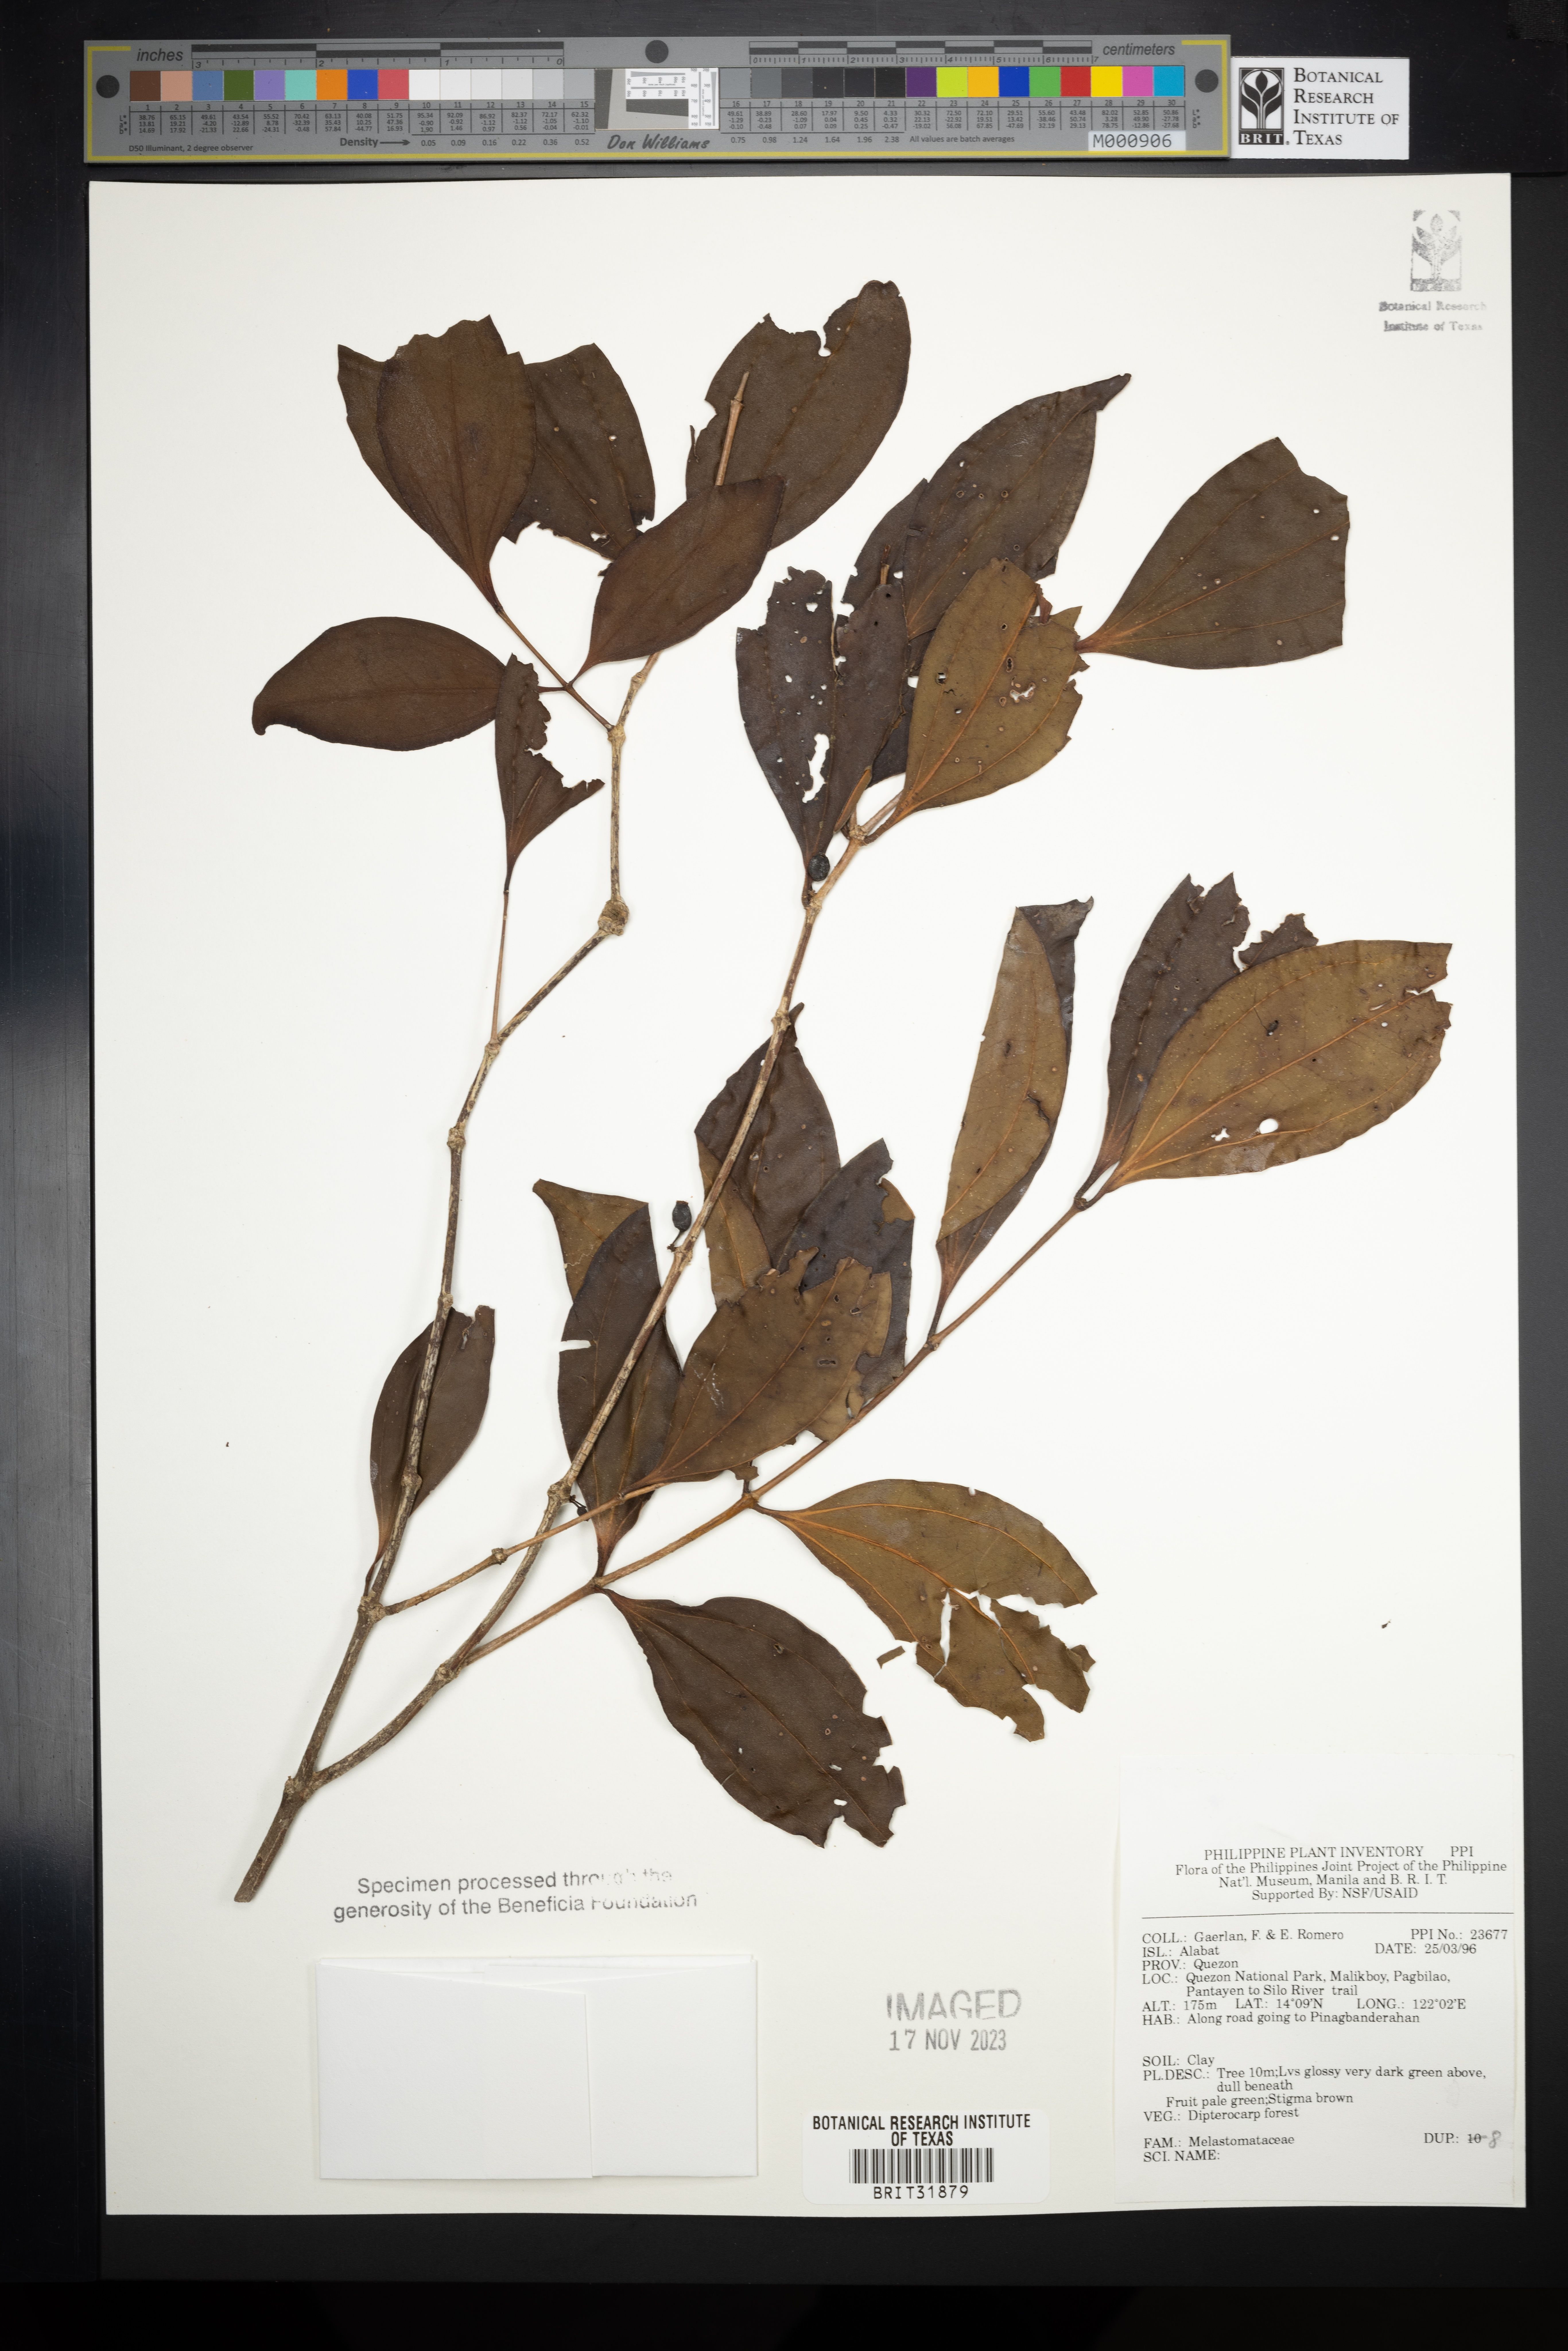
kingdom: Plantae
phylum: Tracheophyta
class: Magnoliopsida
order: Myrtales
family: Melastomataceae
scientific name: Melastomataceae
